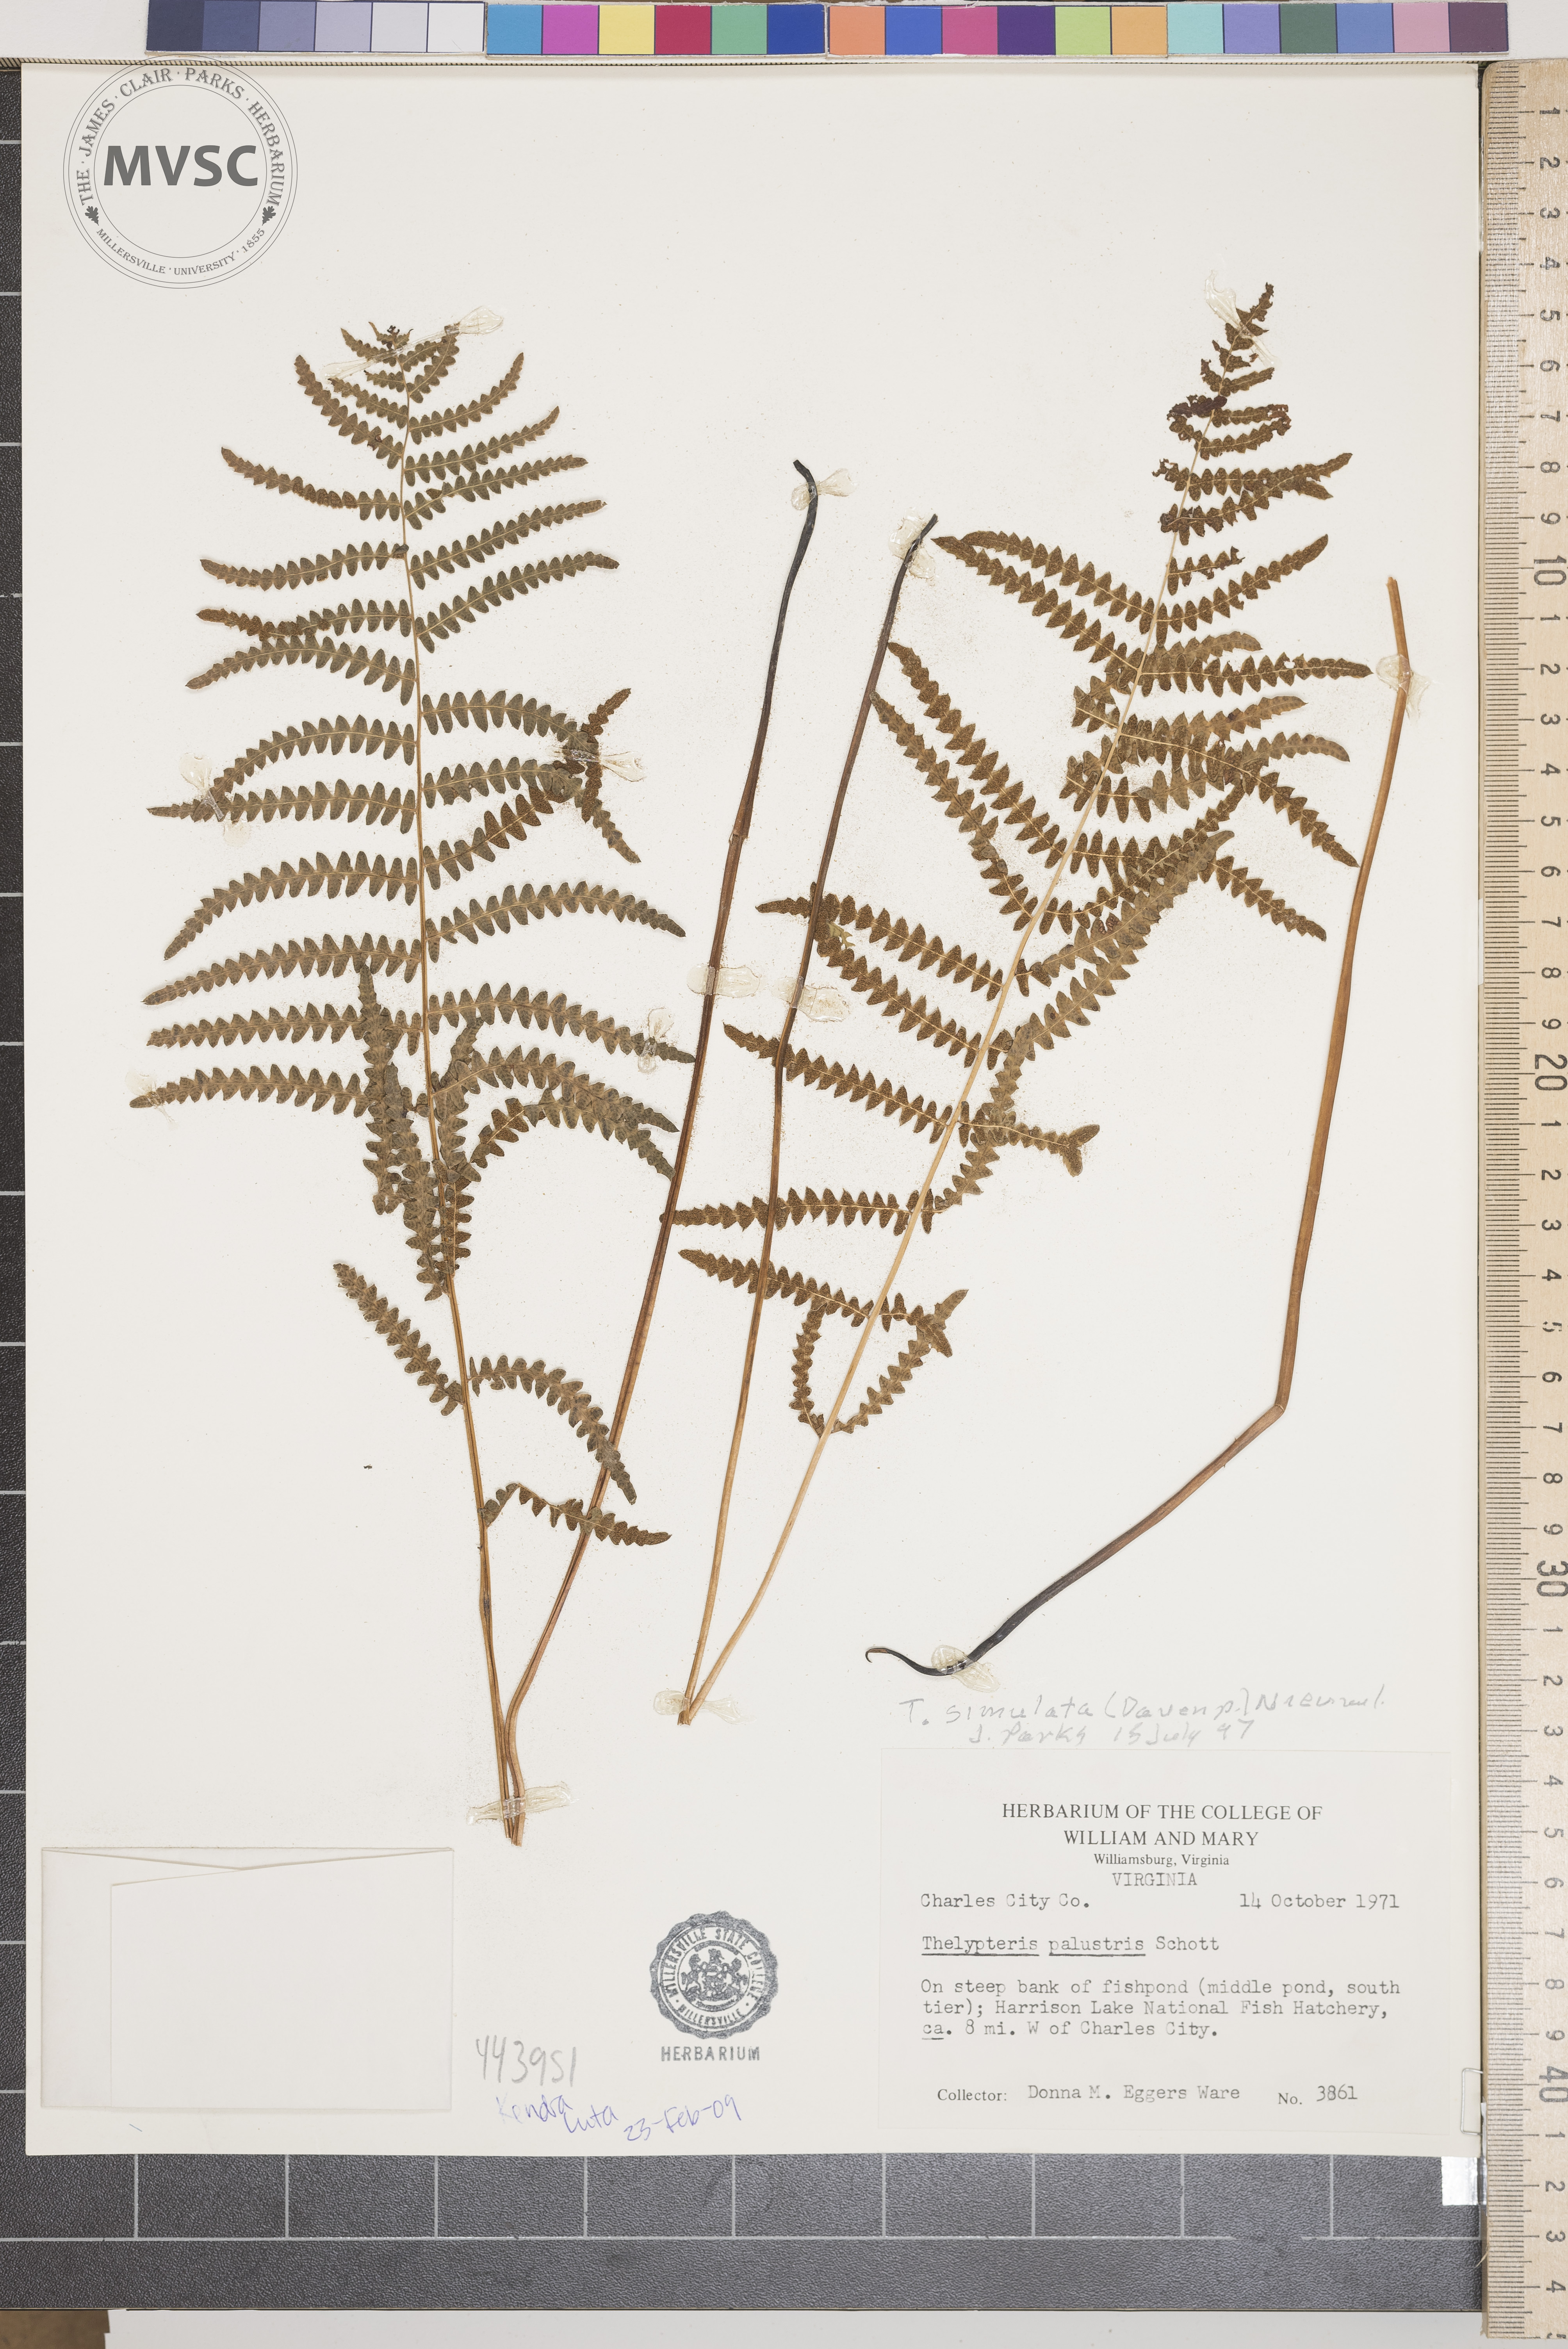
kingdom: Plantae
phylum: Tracheophyta
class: Polypodiopsida
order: Polypodiales
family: Thelypteridaceae
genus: Coryphopteris
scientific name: Coryphopteris simulata
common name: Bog fern
